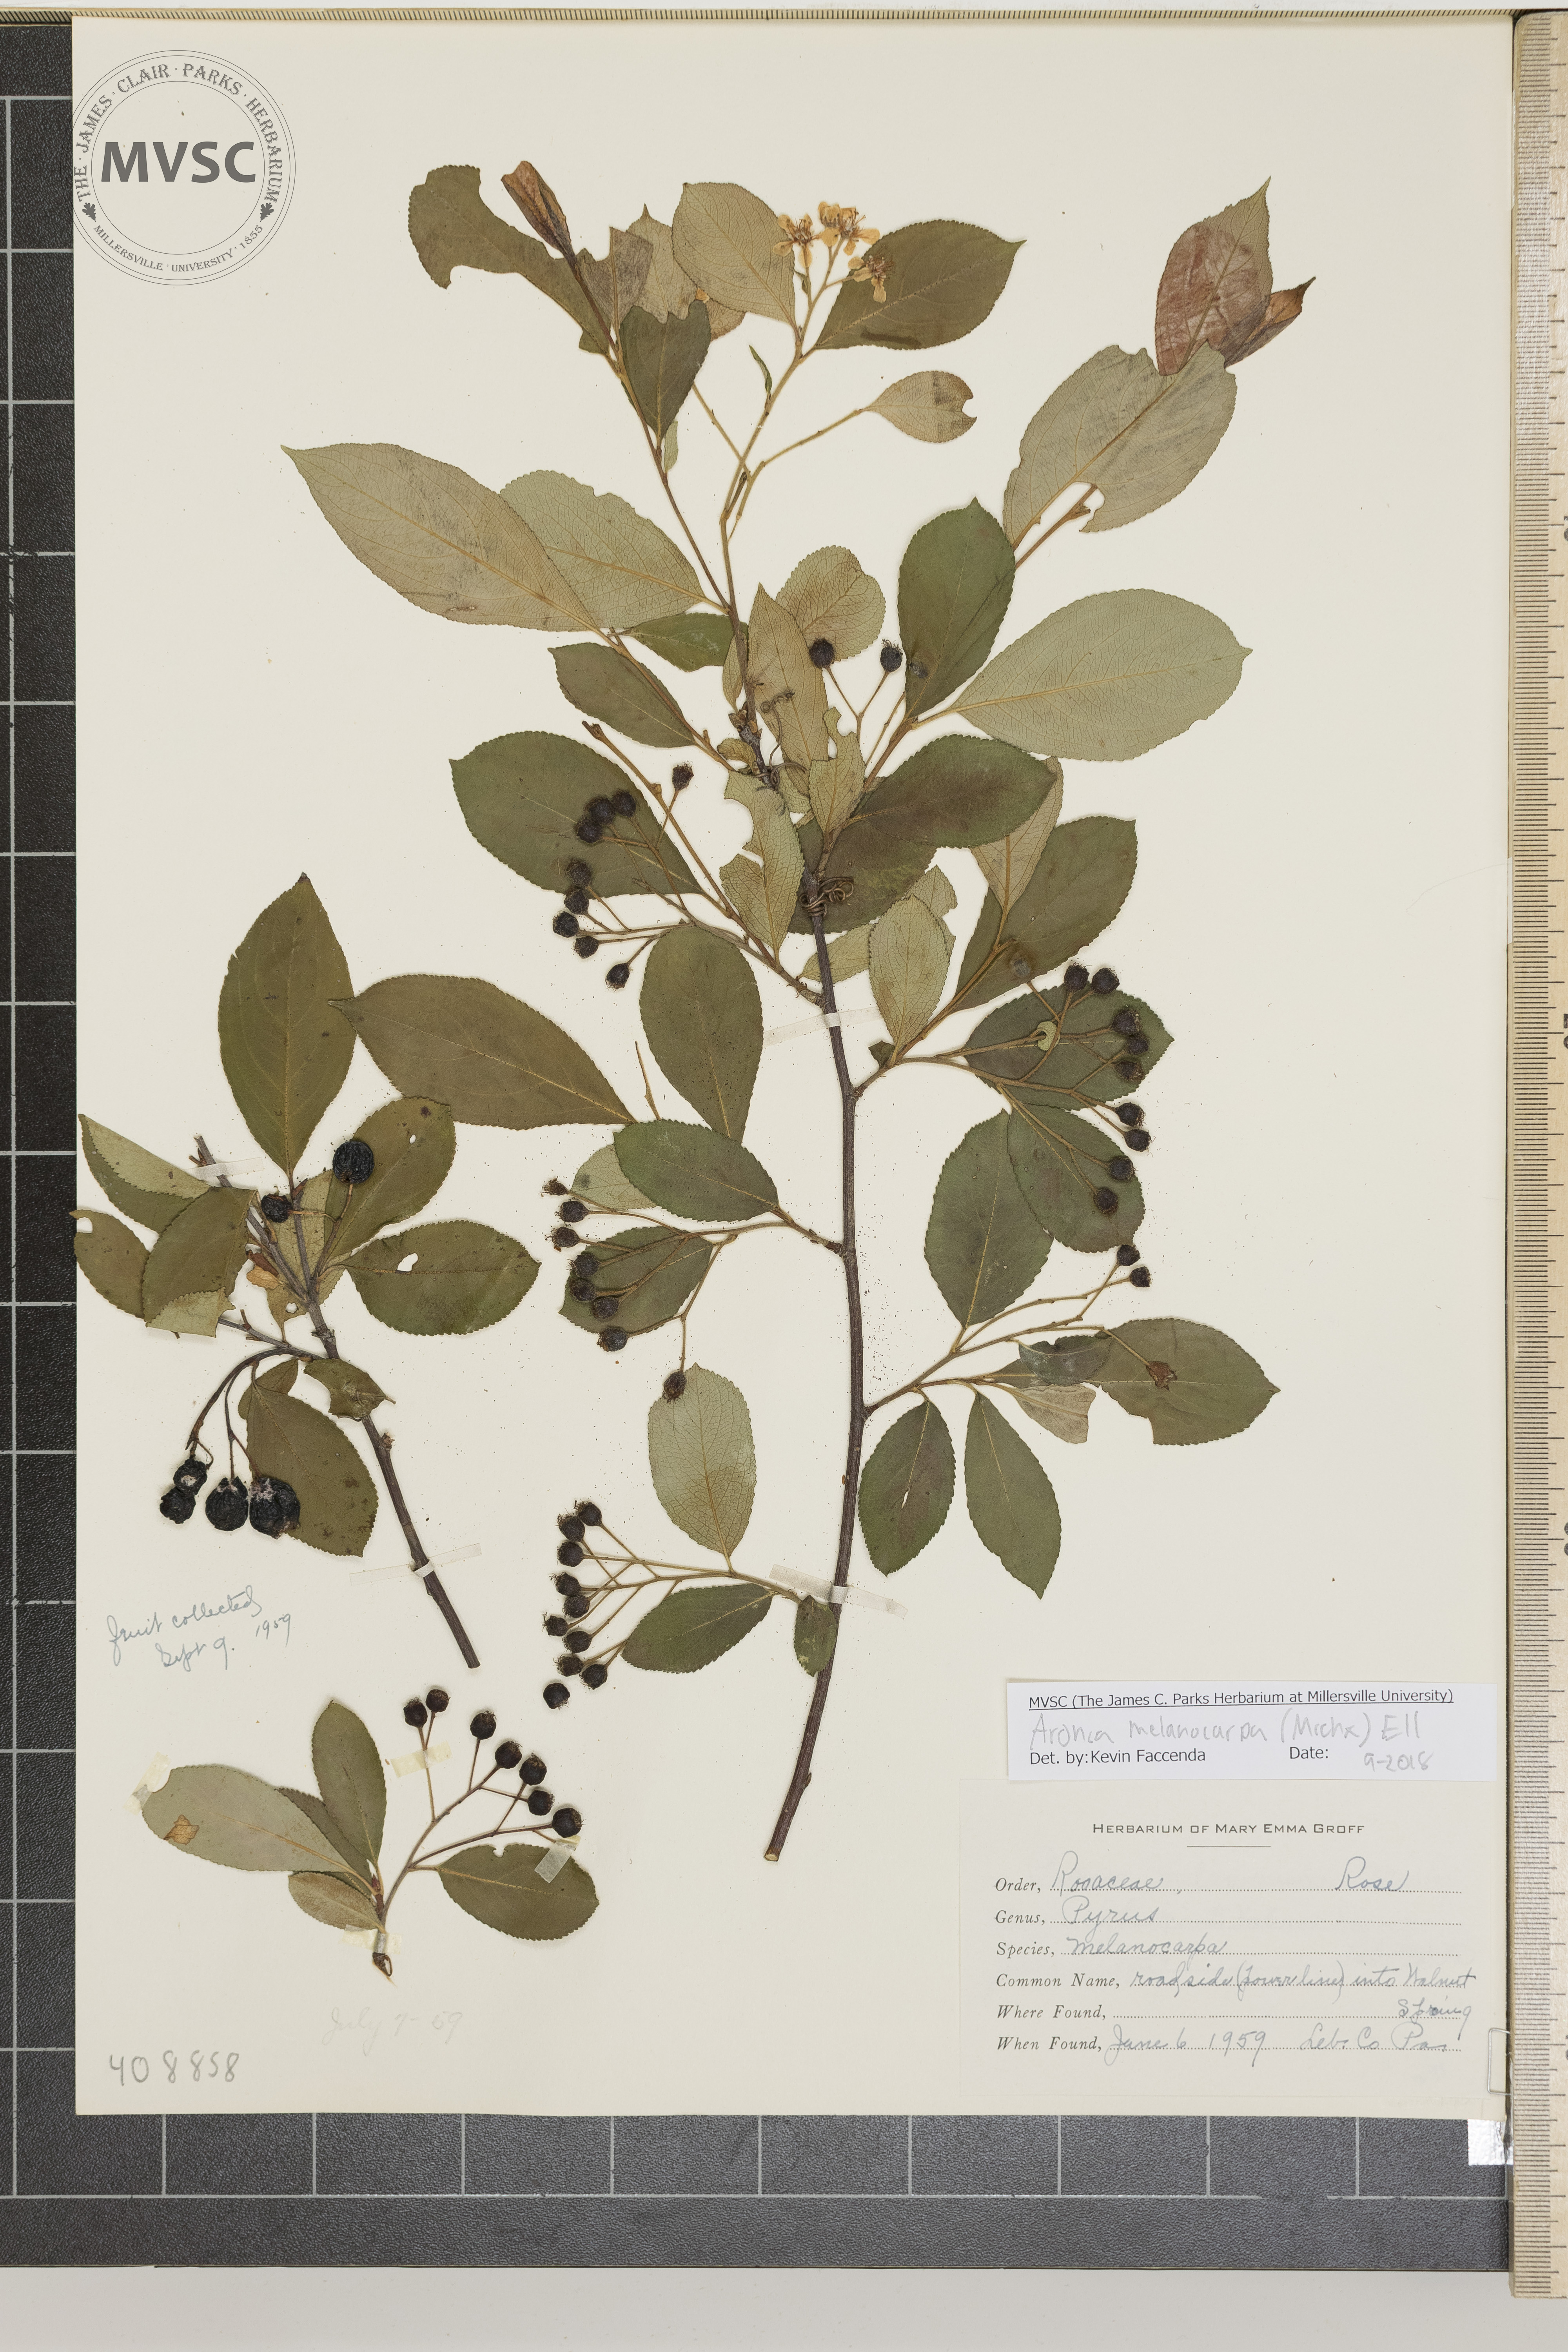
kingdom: Plantae
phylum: Tracheophyta
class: Magnoliopsida
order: Rosales
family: Rosaceae
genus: Aronia
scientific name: Aronia melanocarpa
